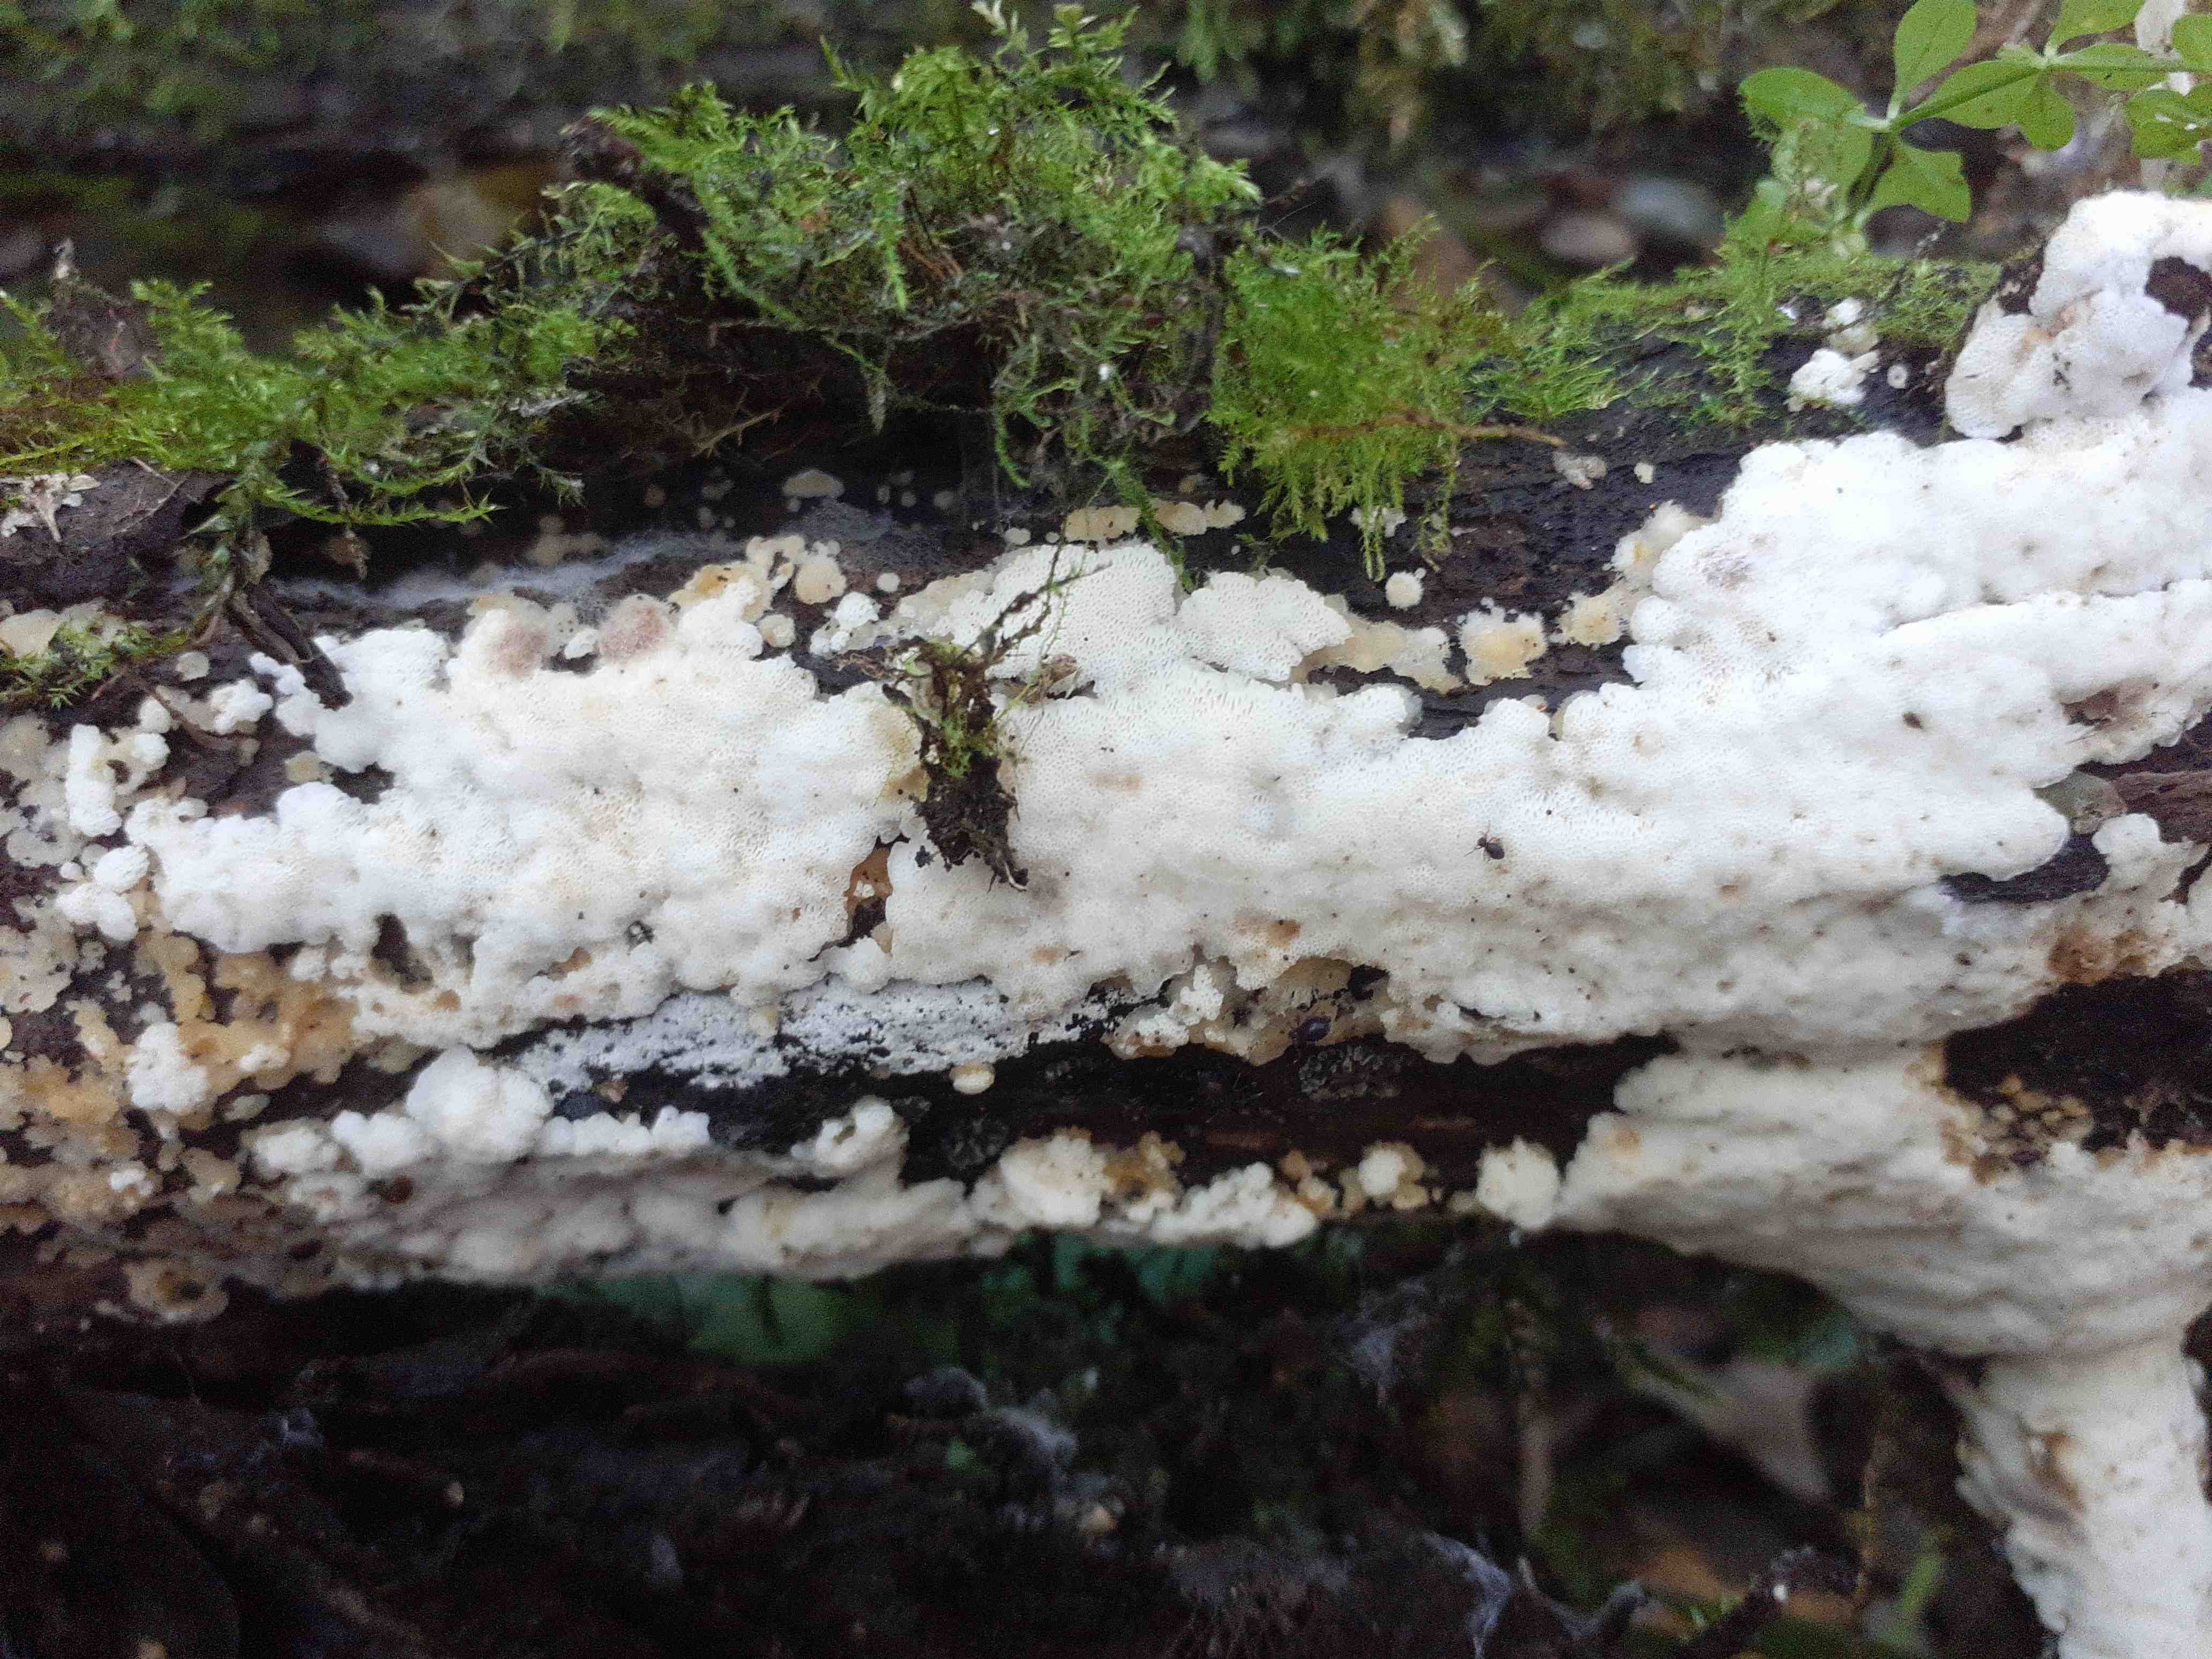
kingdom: Fungi
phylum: Basidiomycota
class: Agaricomycetes
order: Polyporales
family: Meripilaceae
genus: Rigidoporus
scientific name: Rigidoporus sanguinolentus
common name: blod-skorpeporesvamp
